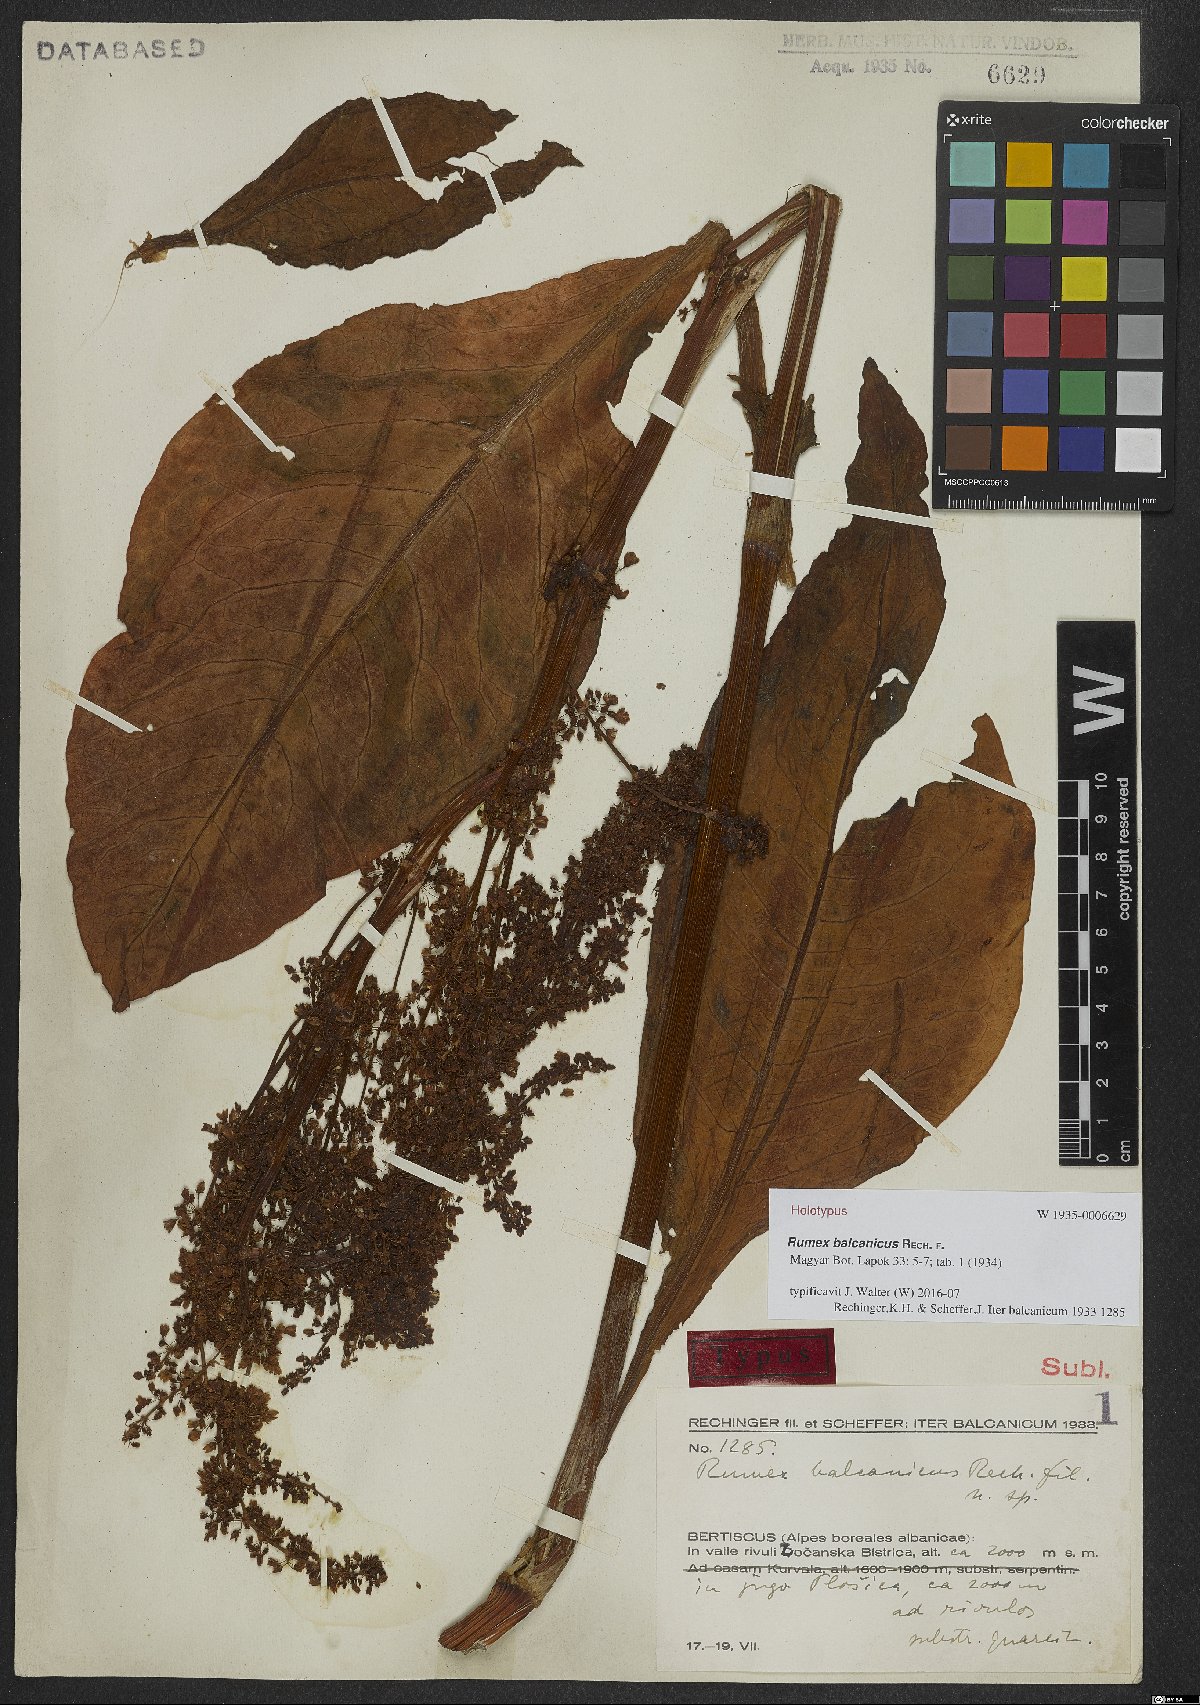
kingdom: Plantae
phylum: Tracheophyta
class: Magnoliopsida
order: Caryophyllales
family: Polygonaceae
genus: Rumex
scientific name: Rumex balcanicus
